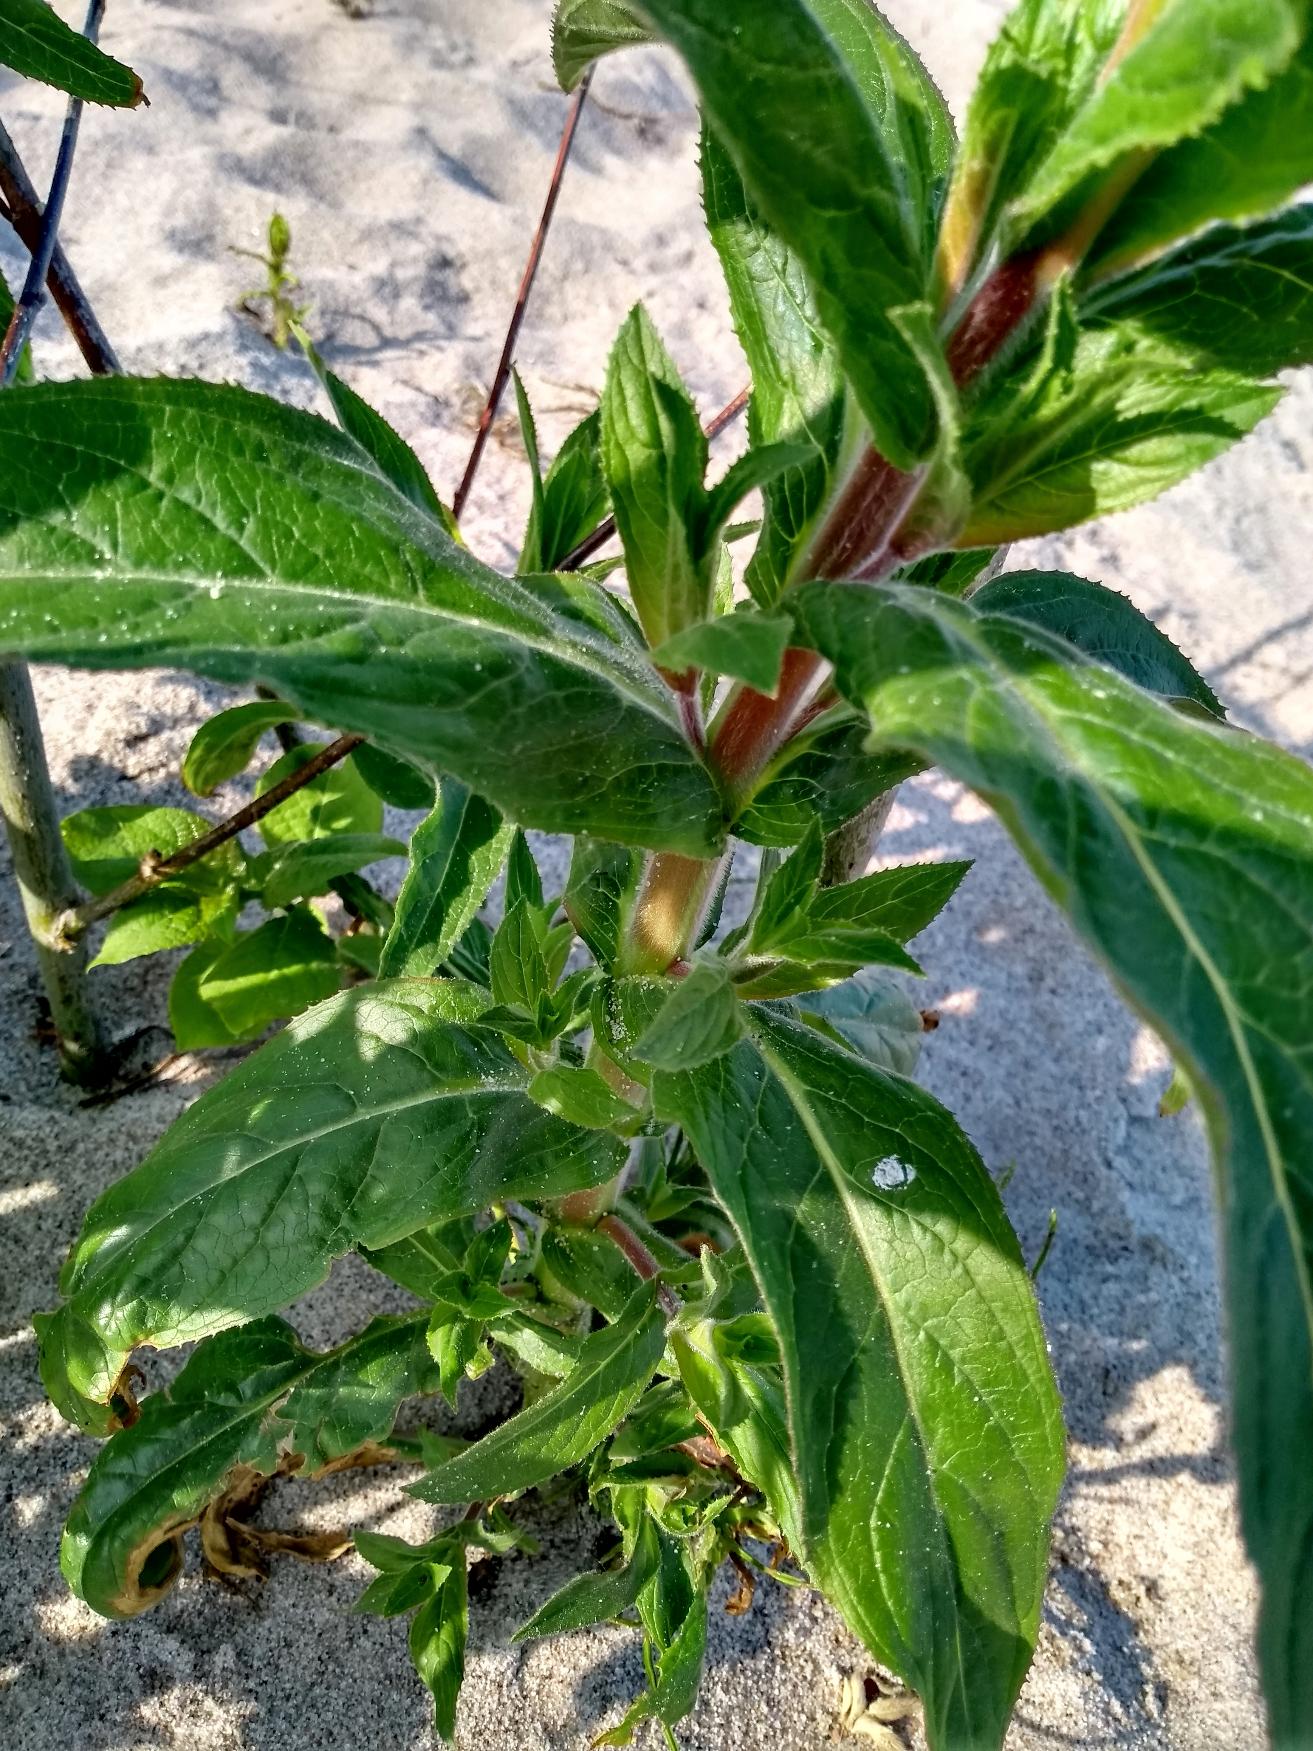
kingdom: Plantae
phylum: Tracheophyta
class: Magnoliopsida
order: Myrtales
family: Onagraceae
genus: Epilobium
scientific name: Epilobium hirsutum
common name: Lådden dueurt
